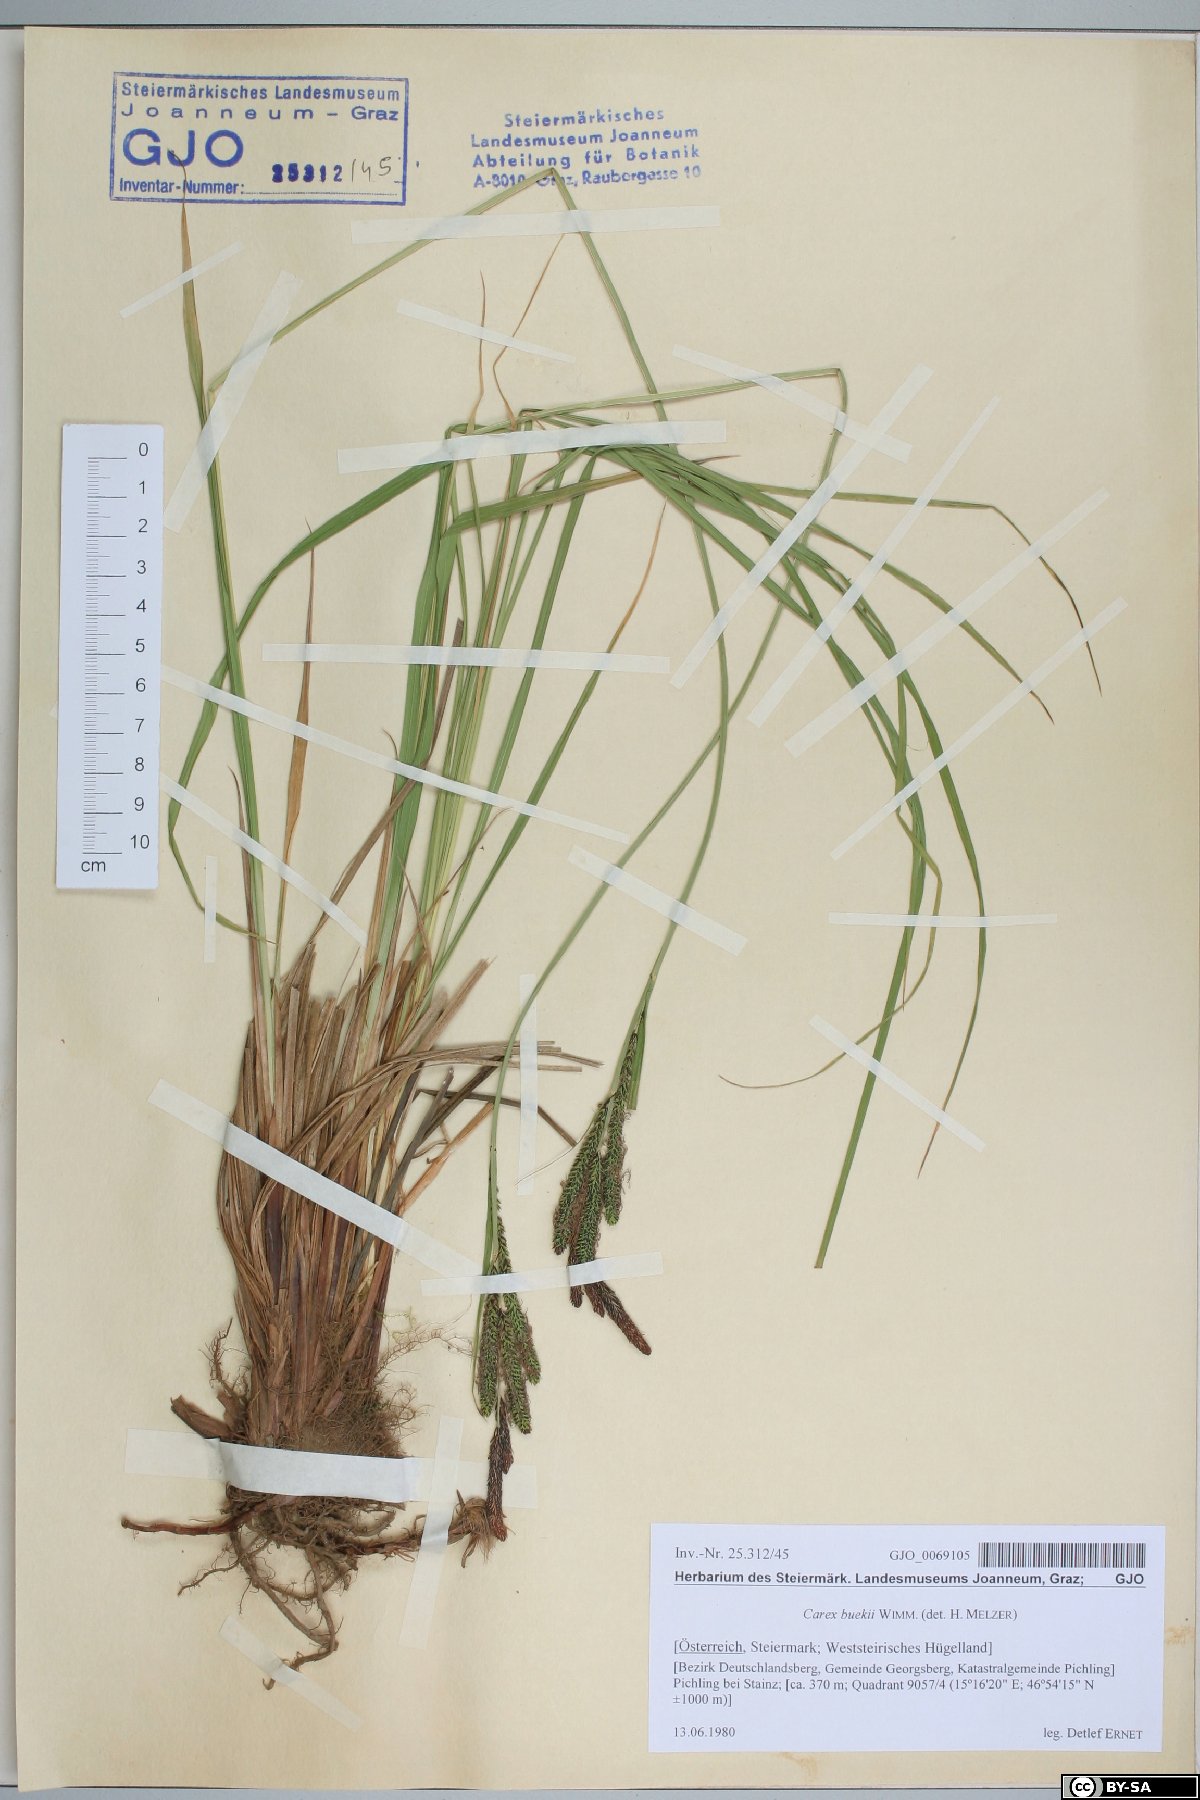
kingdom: Plantae
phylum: Tracheophyta
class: Liliopsida
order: Poales
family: Cyperaceae
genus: Carex
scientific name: Carex buekii
